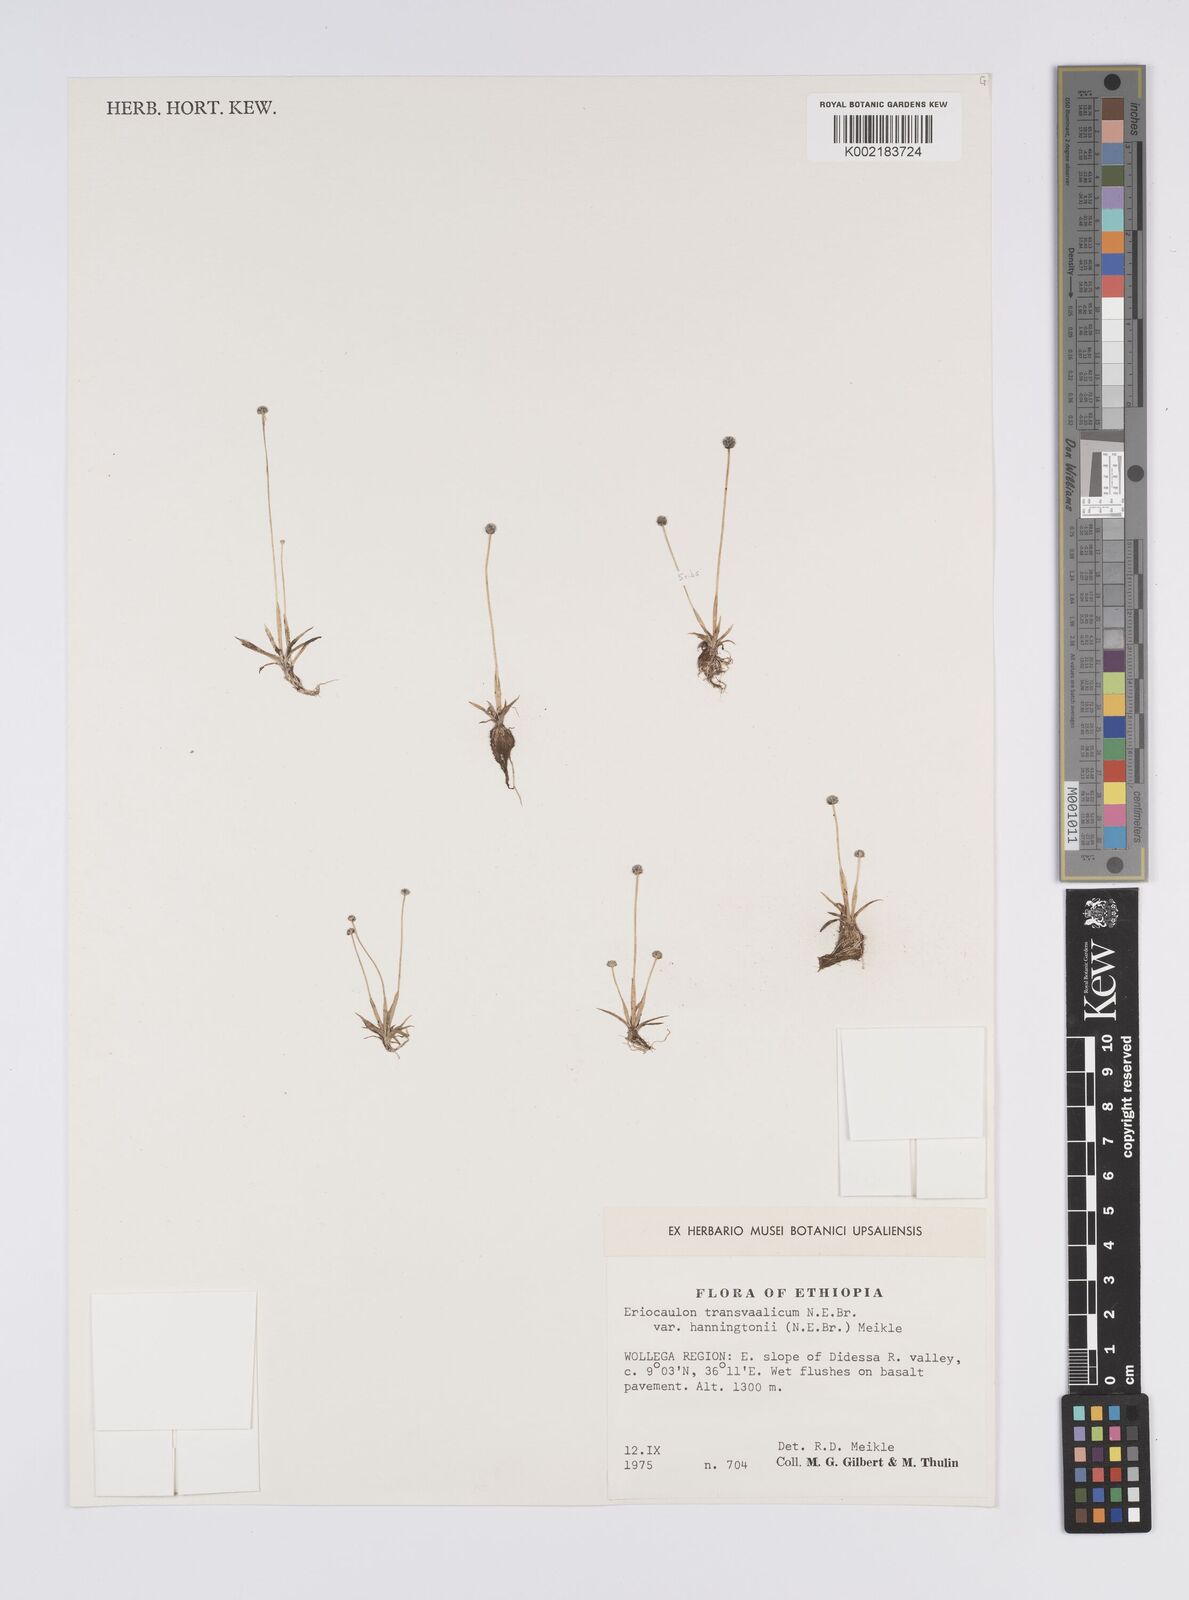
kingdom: Plantae
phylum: Tracheophyta
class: Liliopsida
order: Poales
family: Eriocaulaceae
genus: Eriocaulon
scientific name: Eriocaulon transvaalicum
